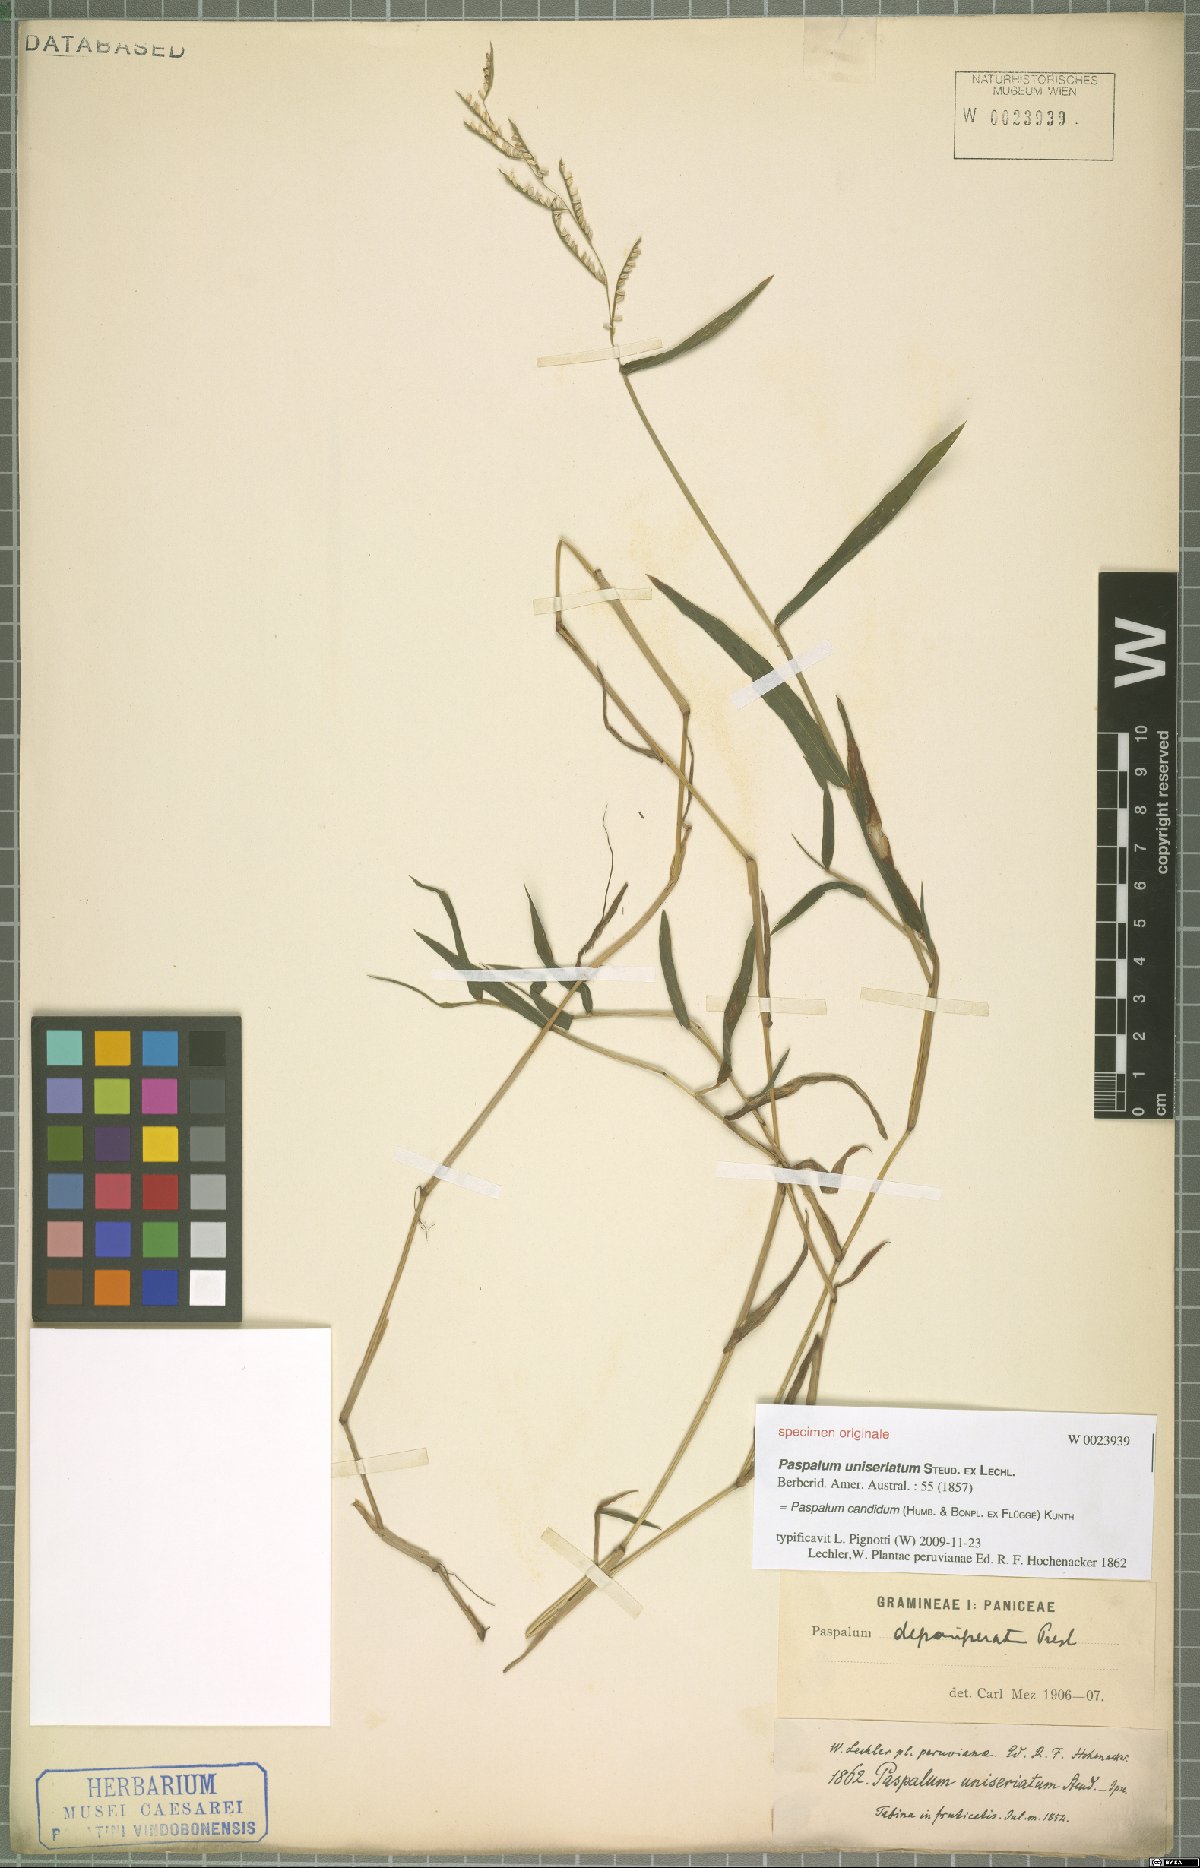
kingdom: Plantae
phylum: Tracheophyta
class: Liliopsida
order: Poales
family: Poaceae
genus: Paspalum
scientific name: Paspalum candidum
